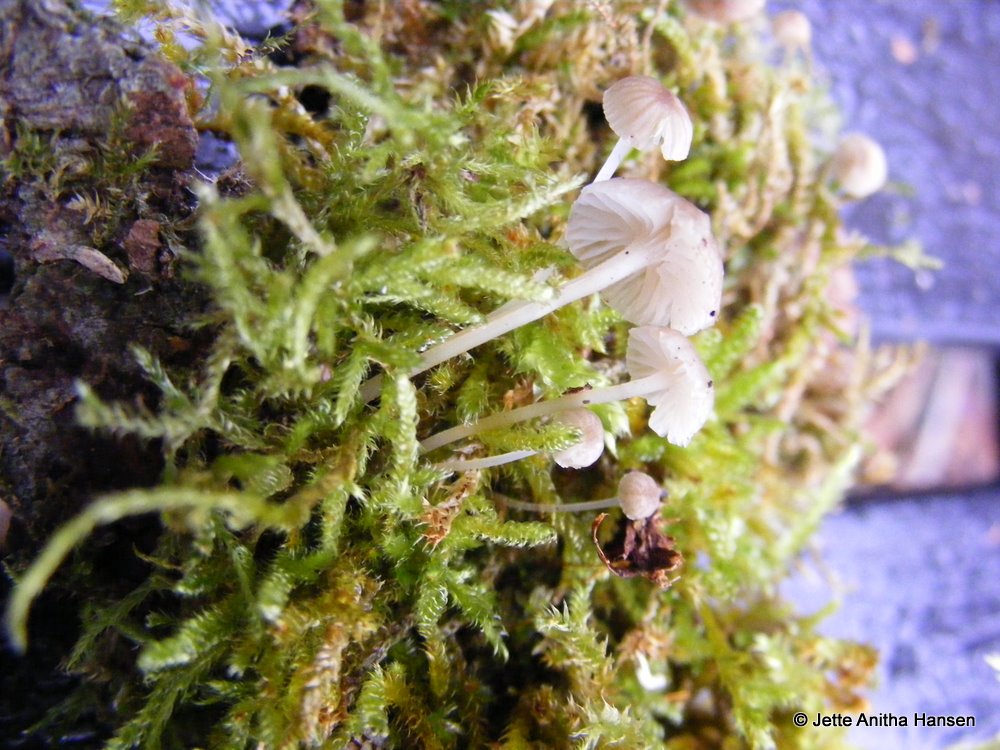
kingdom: Fungi
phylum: Basidiomycota
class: Agaricomycetes
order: Agaricales
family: Porotheleaceae
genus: Phloeomana
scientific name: Phloeomana speirea
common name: kvist-huesvamp
